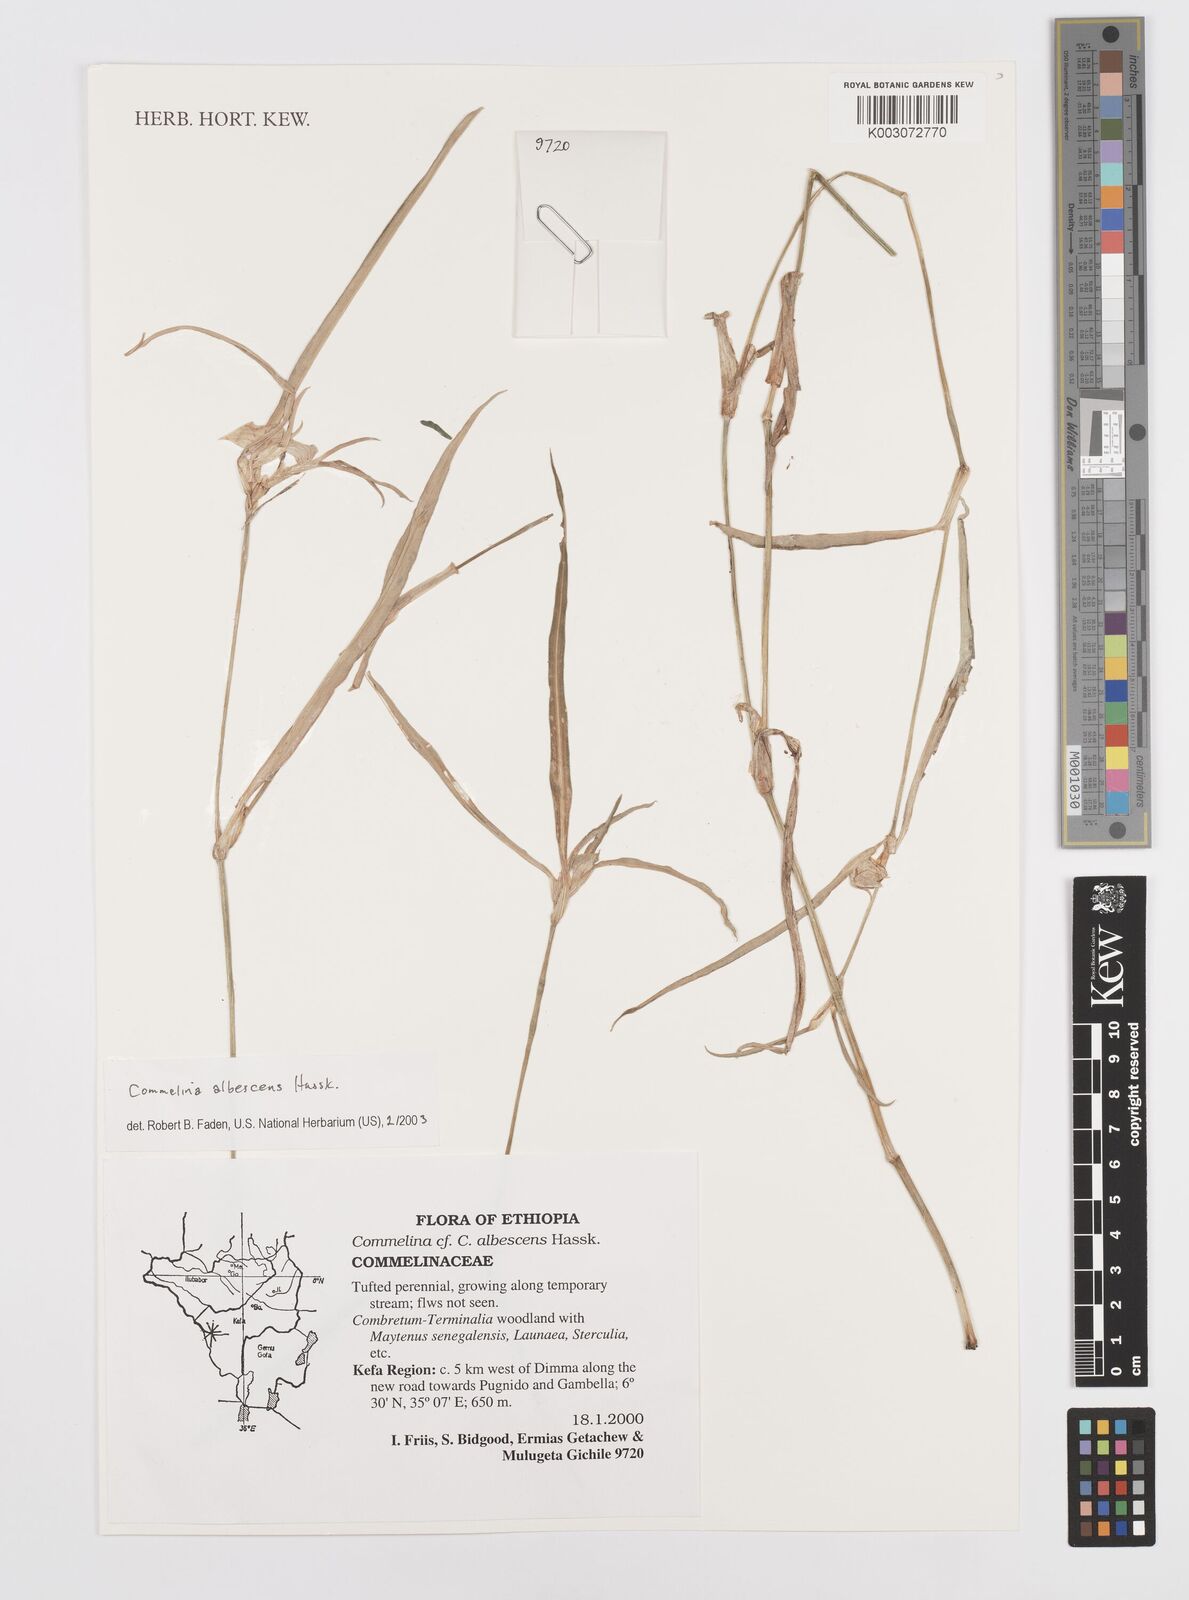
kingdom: Plantae
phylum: Tracheophyta
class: Liliopsida
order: Commelinales
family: Commelinaceae
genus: Commelina
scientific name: Commelina albescens
